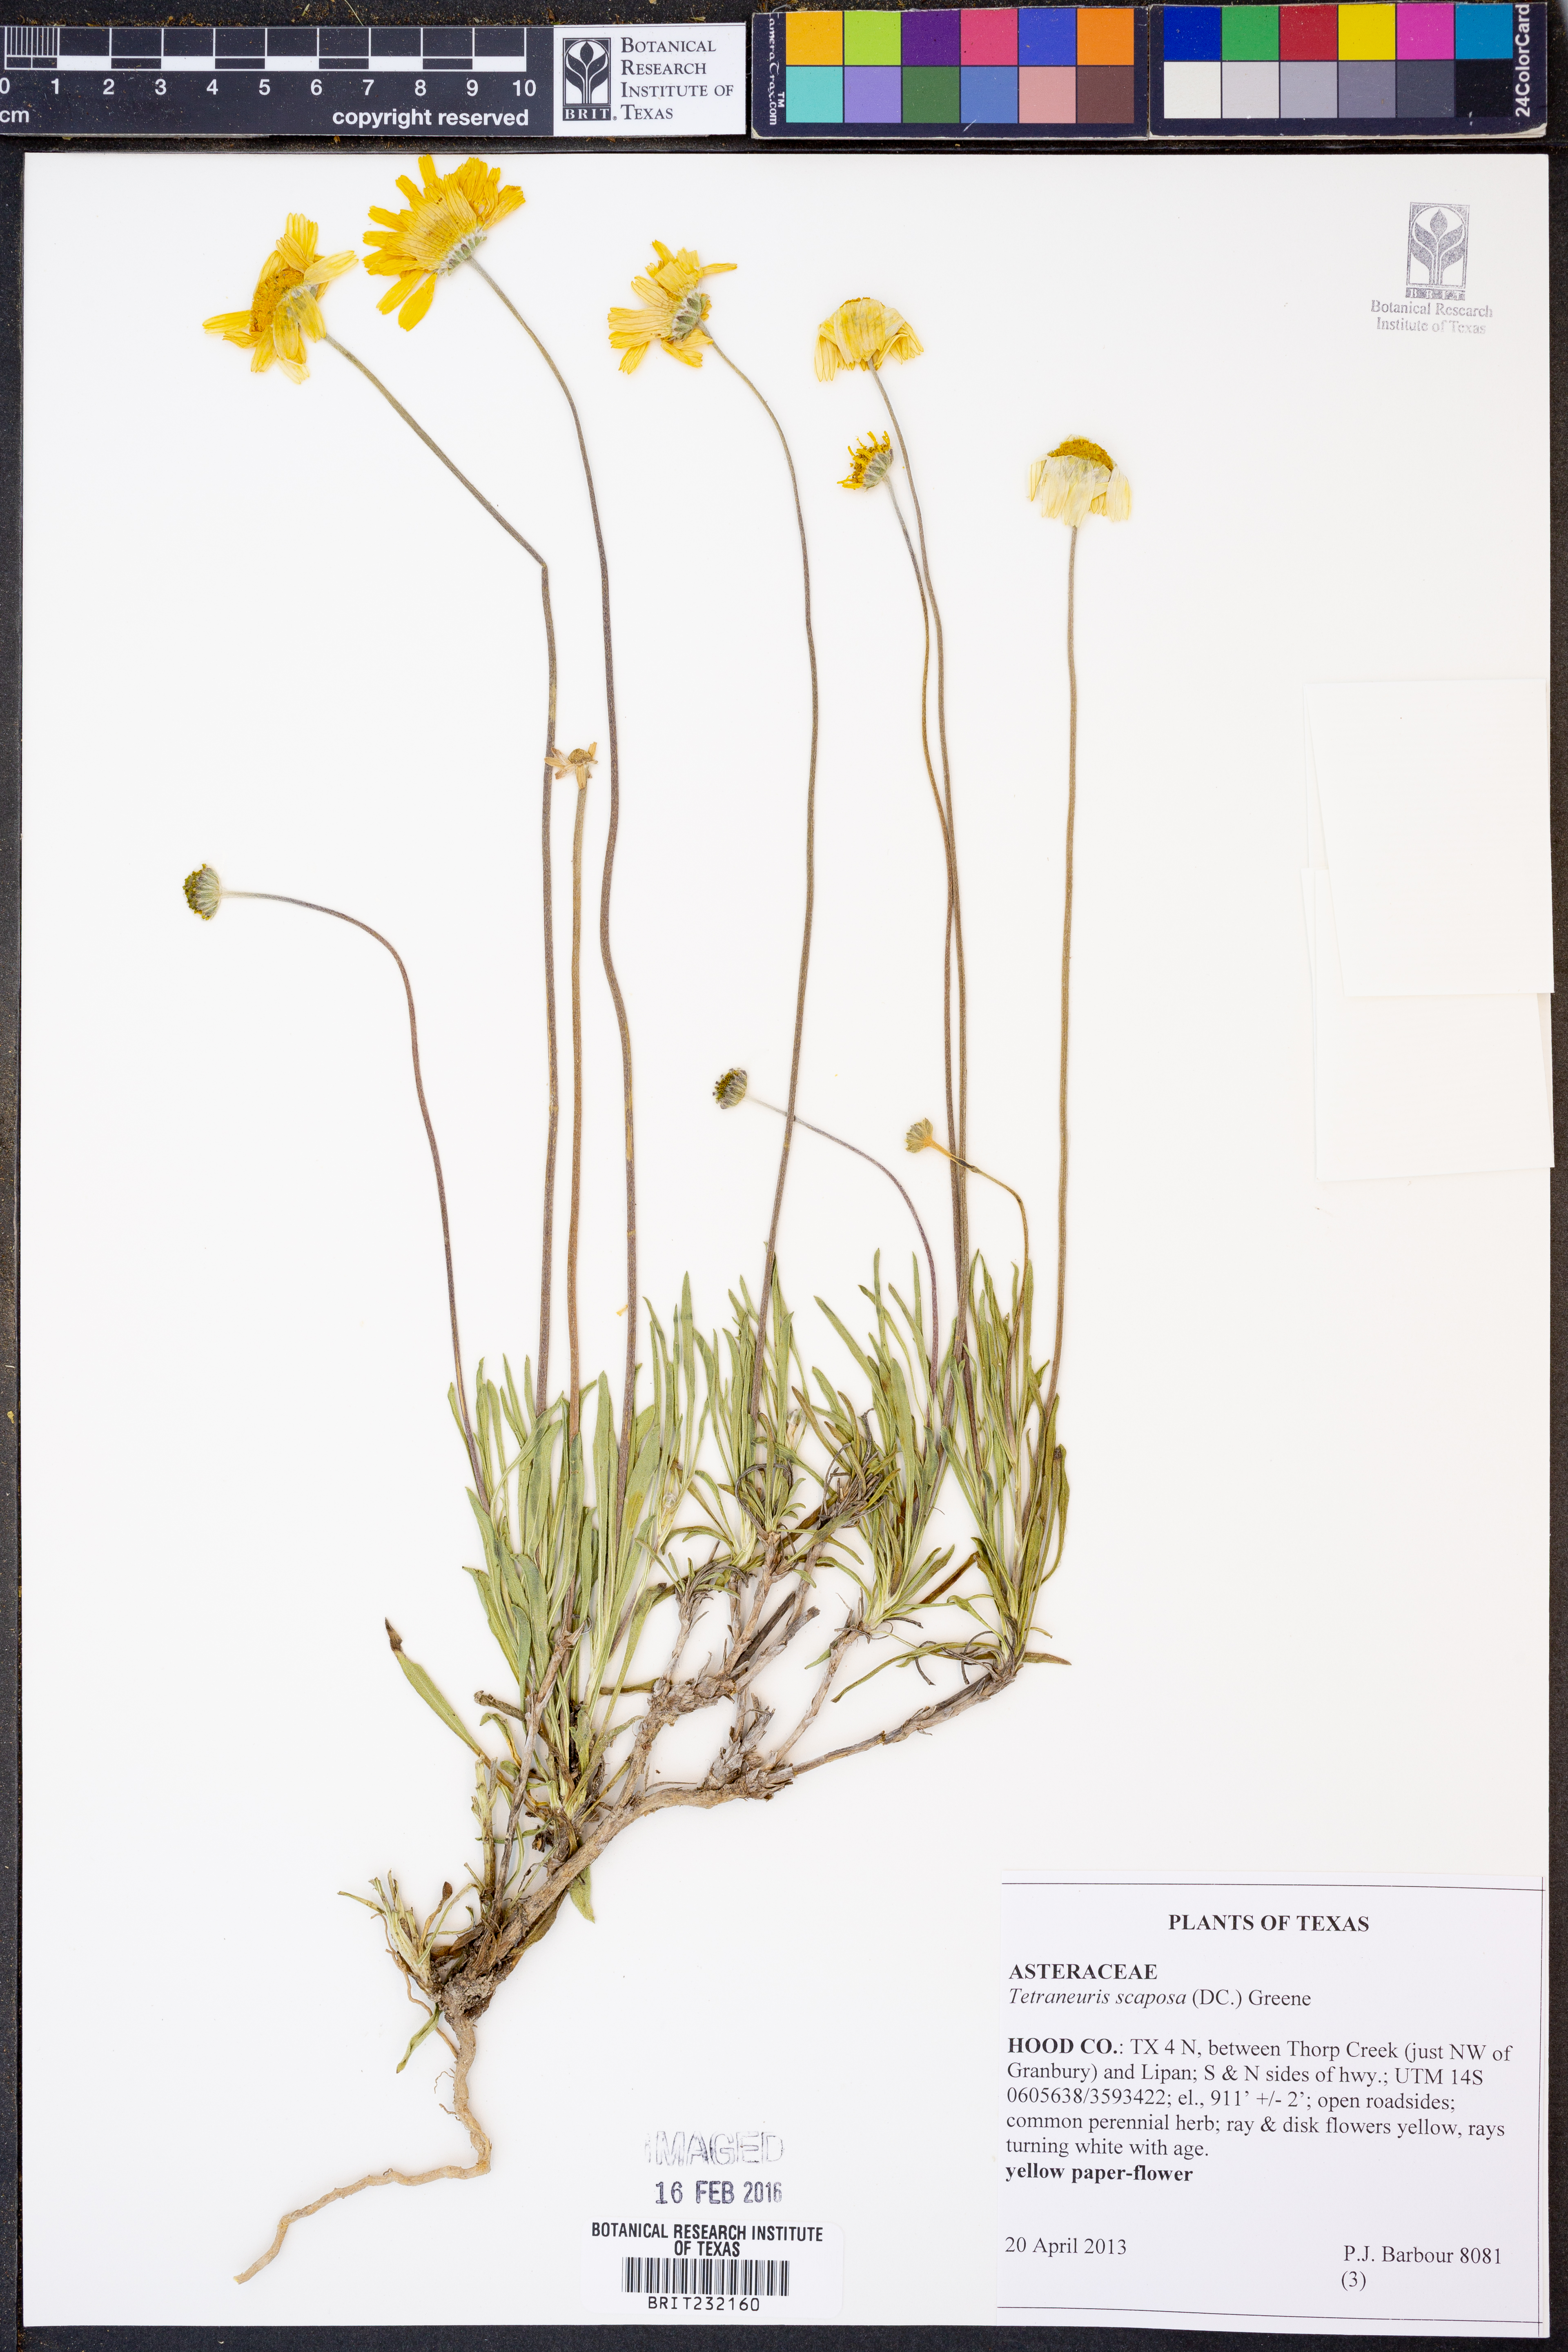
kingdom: Plantae
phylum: Tracheophyta
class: Magnoliopsida
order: Asterales
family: Asteraceae
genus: Tetraneuris
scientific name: Tetraneuris scaposa
